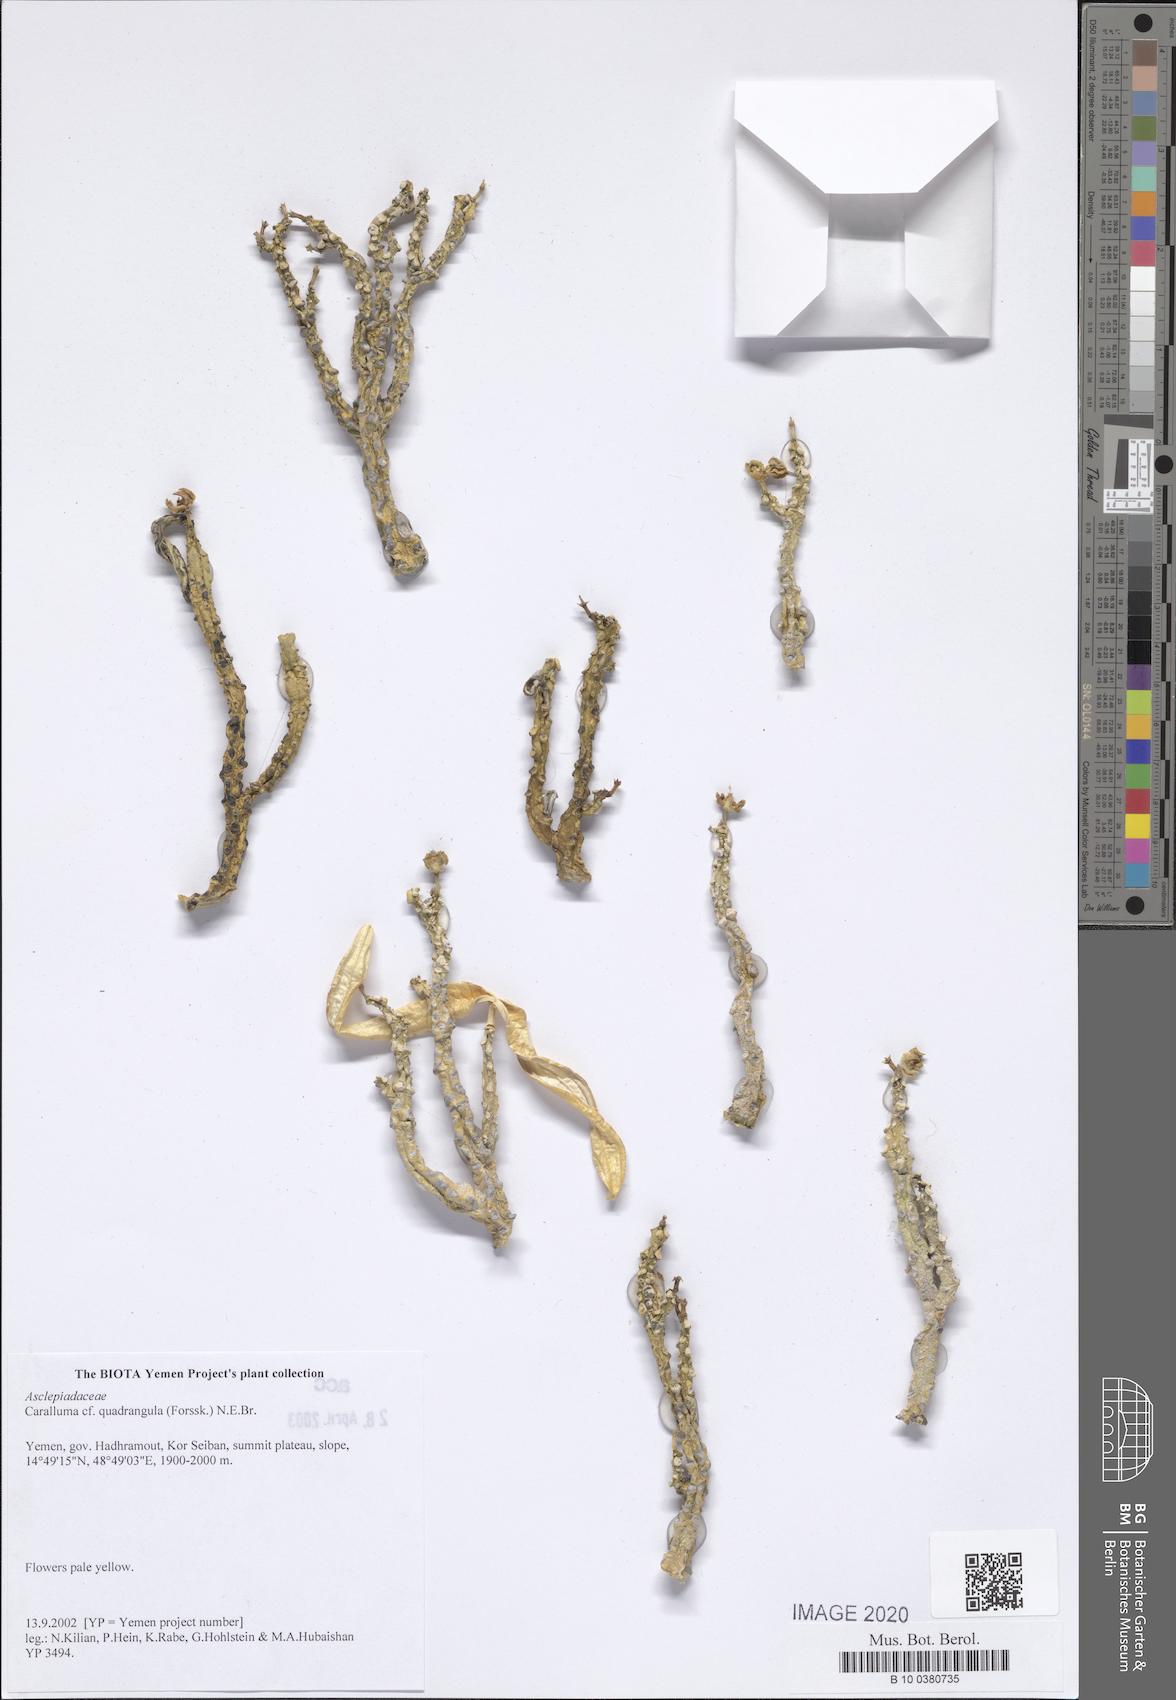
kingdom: Plantae
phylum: Tracheophyta
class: Magnoliopsida
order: Gentianales
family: Apocynaceae
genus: Ceropegia
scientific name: Ceropegia quadrangula
